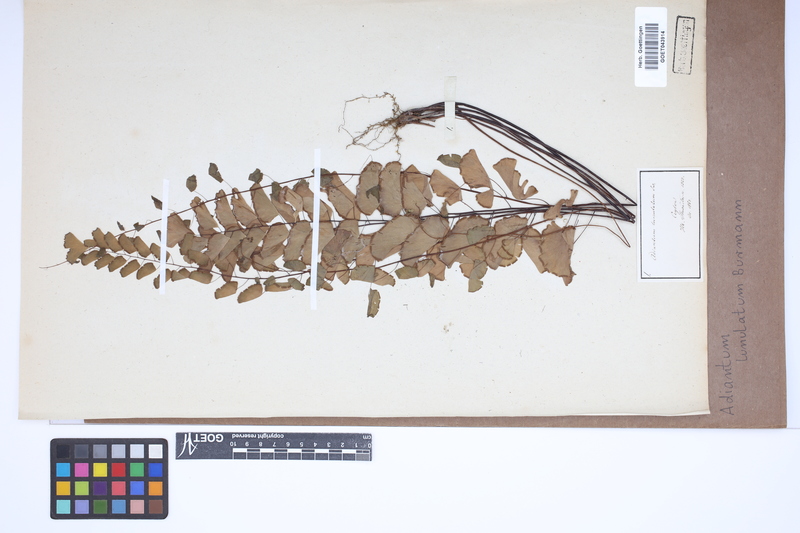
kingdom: Plantae
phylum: Tracheophyta
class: Polypodiopsida
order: Polypodiales
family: Pteridaceae
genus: Adiantum
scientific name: Adiantum philippense
